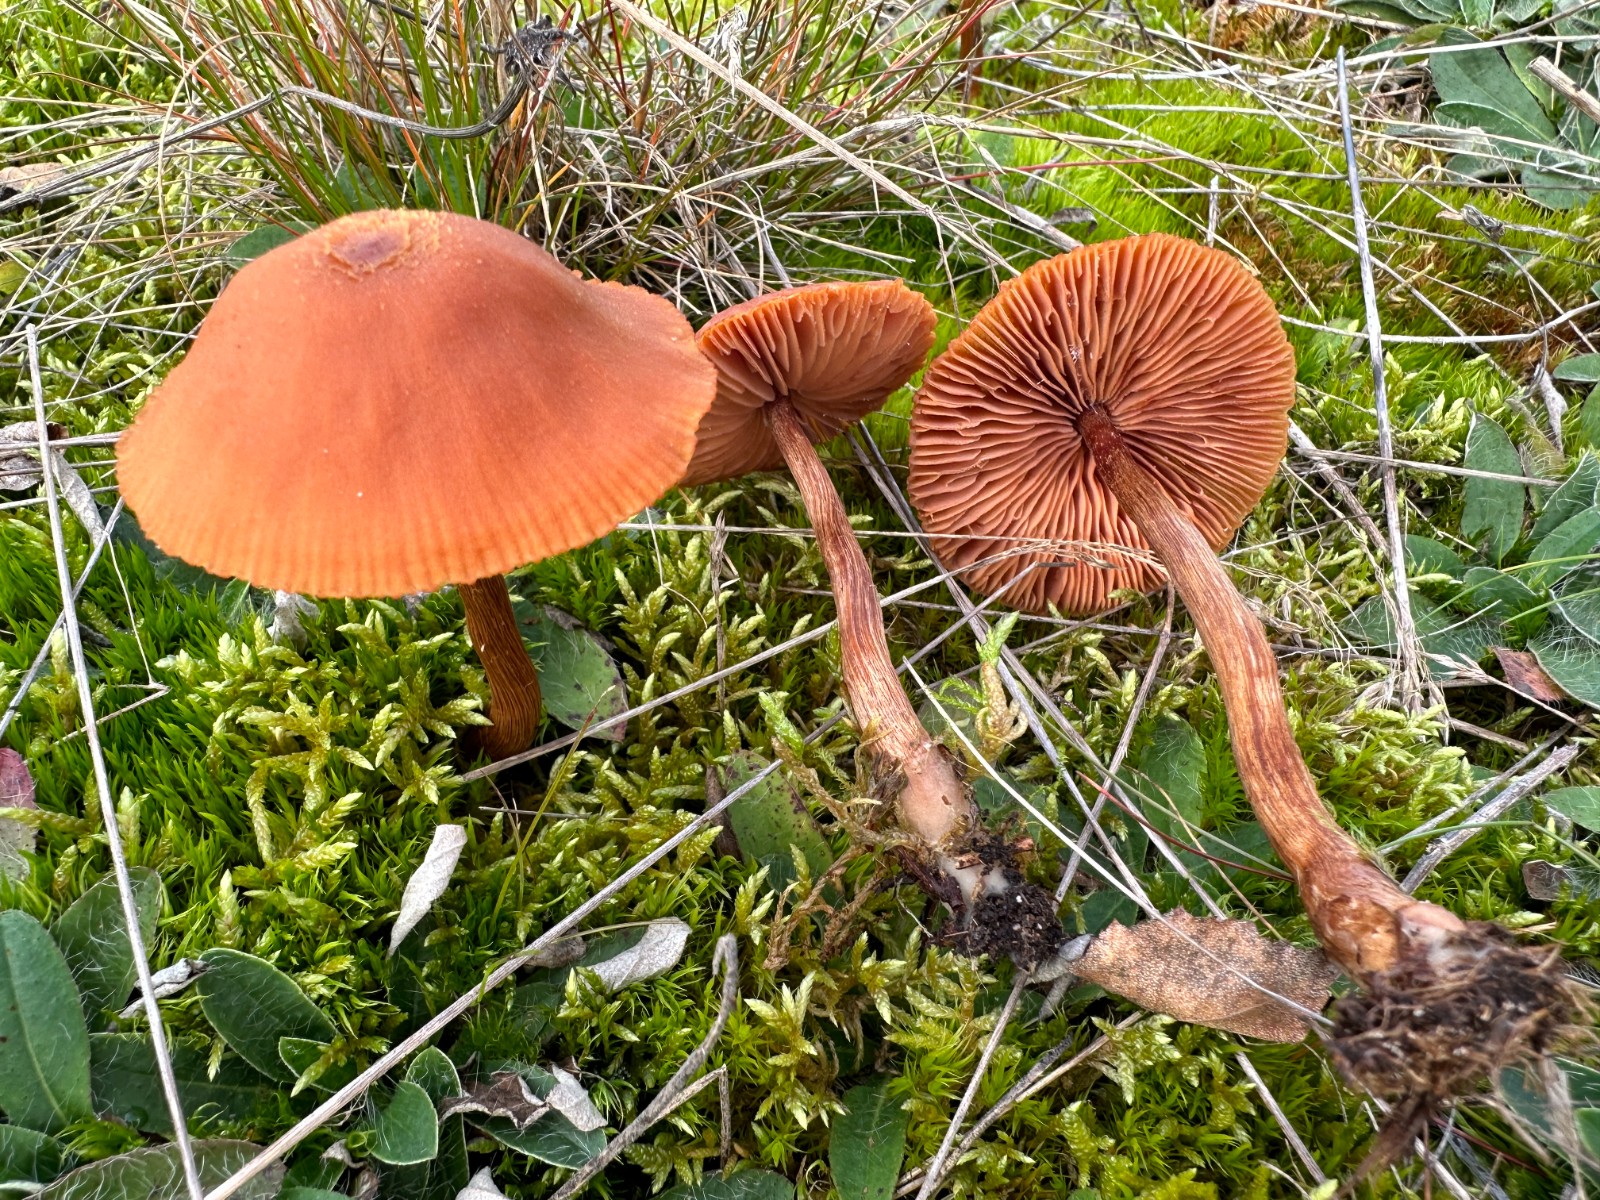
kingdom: Fungi
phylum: Basidiomycota
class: Agaricomycetes
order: Agaricales
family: Hydnangiaceae
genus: Laccaria
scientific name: Laccaria proxima
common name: stor ametysthat
